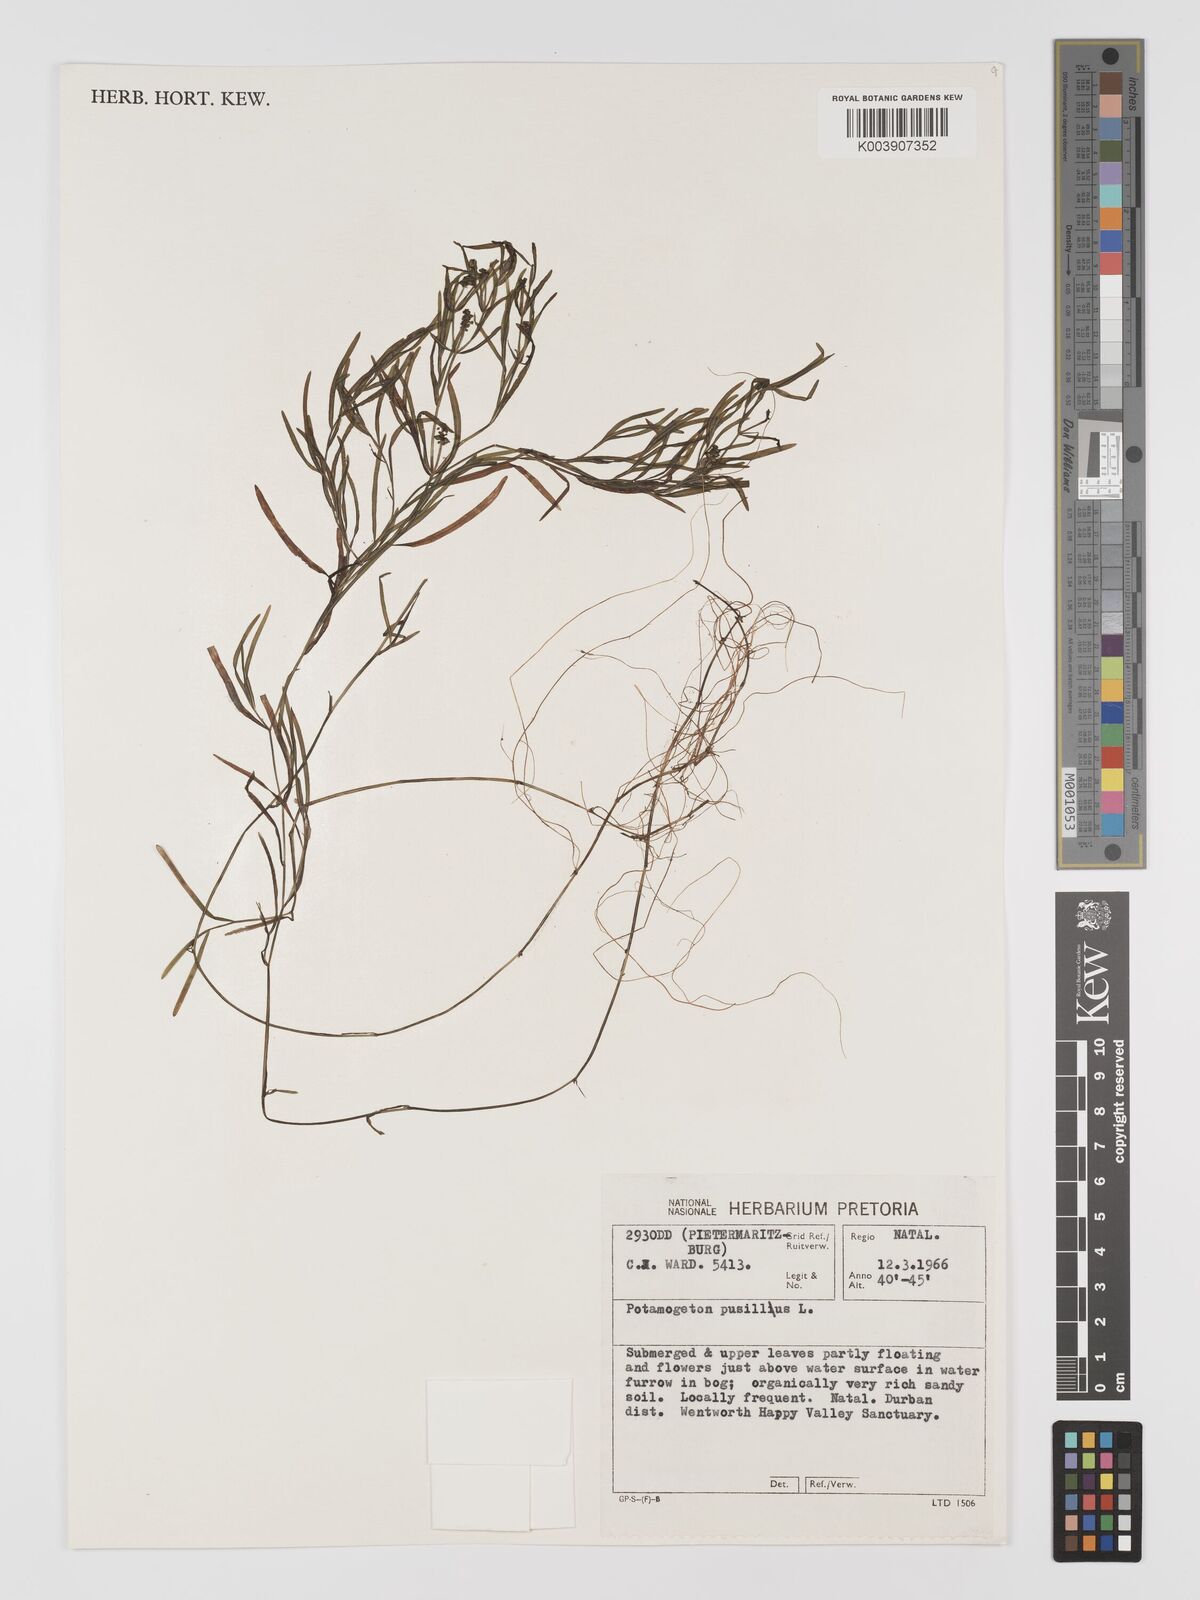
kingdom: Plantae
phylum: Tracheophyta
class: Liliopsida
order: Alismatales
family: Potamogetonaceae
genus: Potamogeton
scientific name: Potamogeton pusillus
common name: Lesser pondweed
